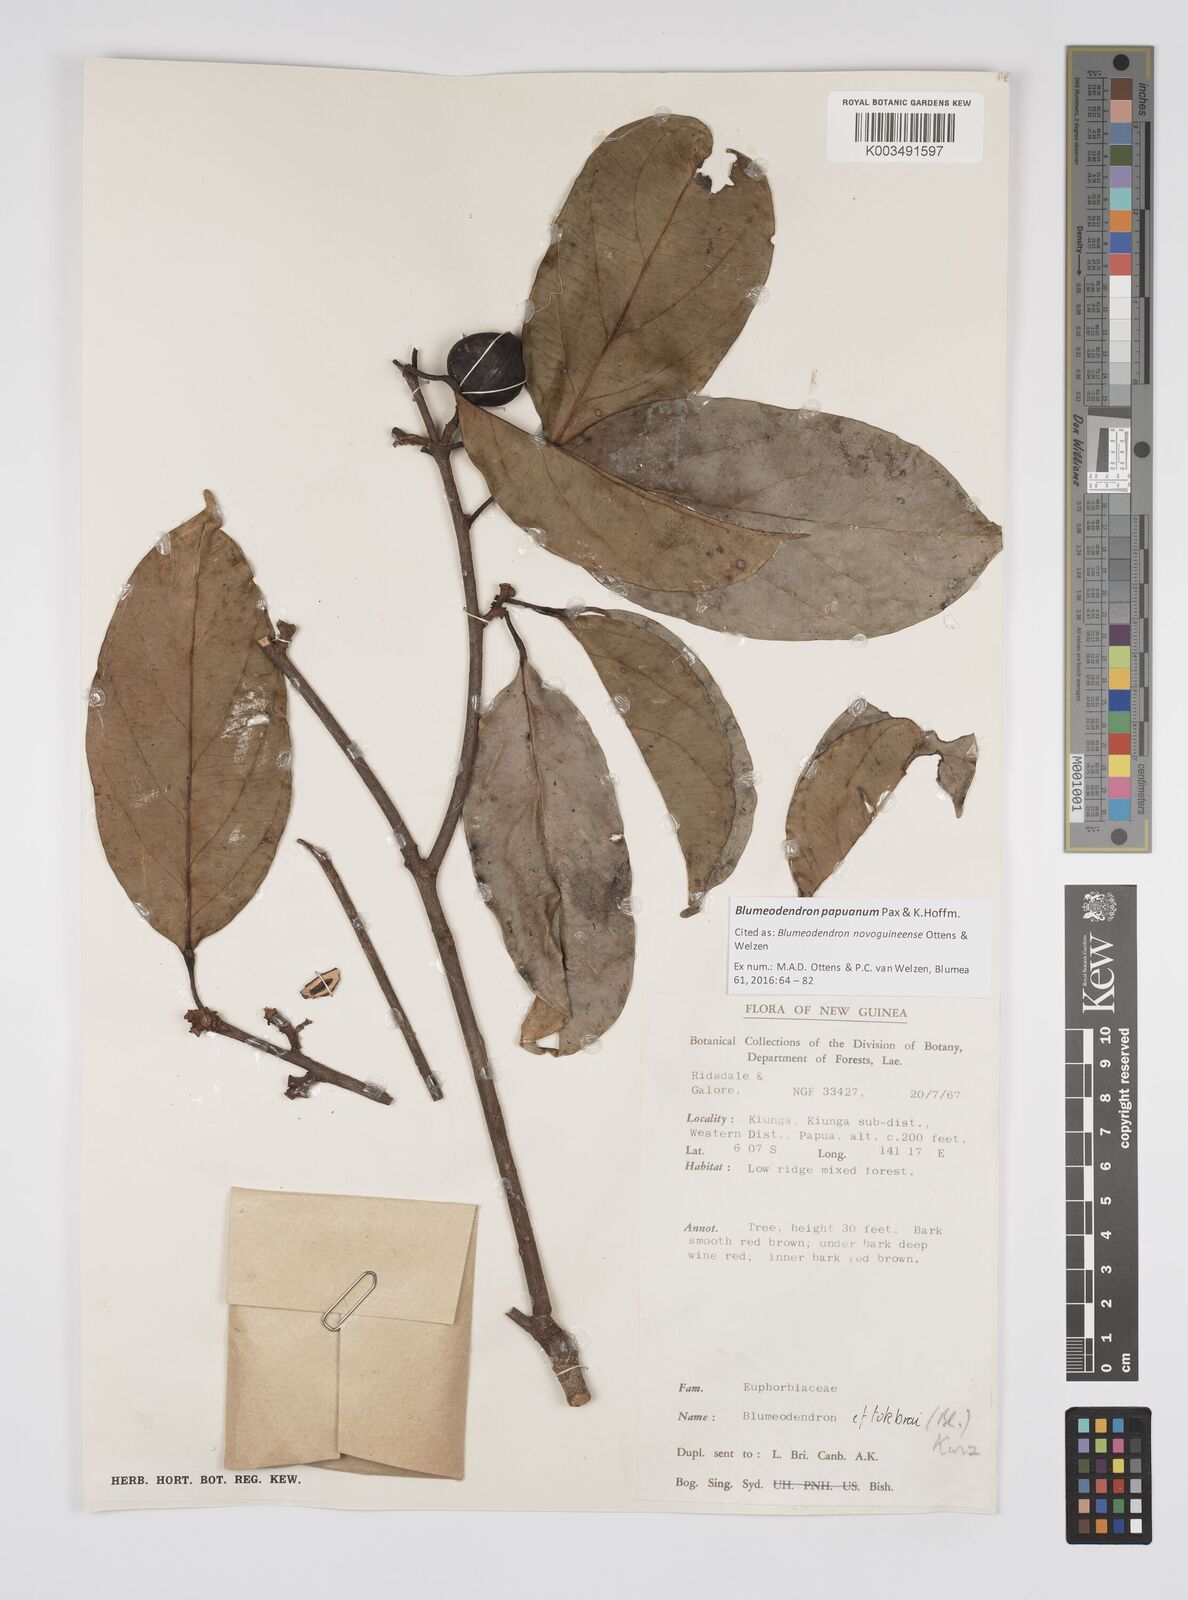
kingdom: Plantae
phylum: Tracheophyta
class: Magnoliopsida
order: Malpighiales
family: Euphorbiaceae
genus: Blumeodendron
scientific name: Blumeodendron papuanum
